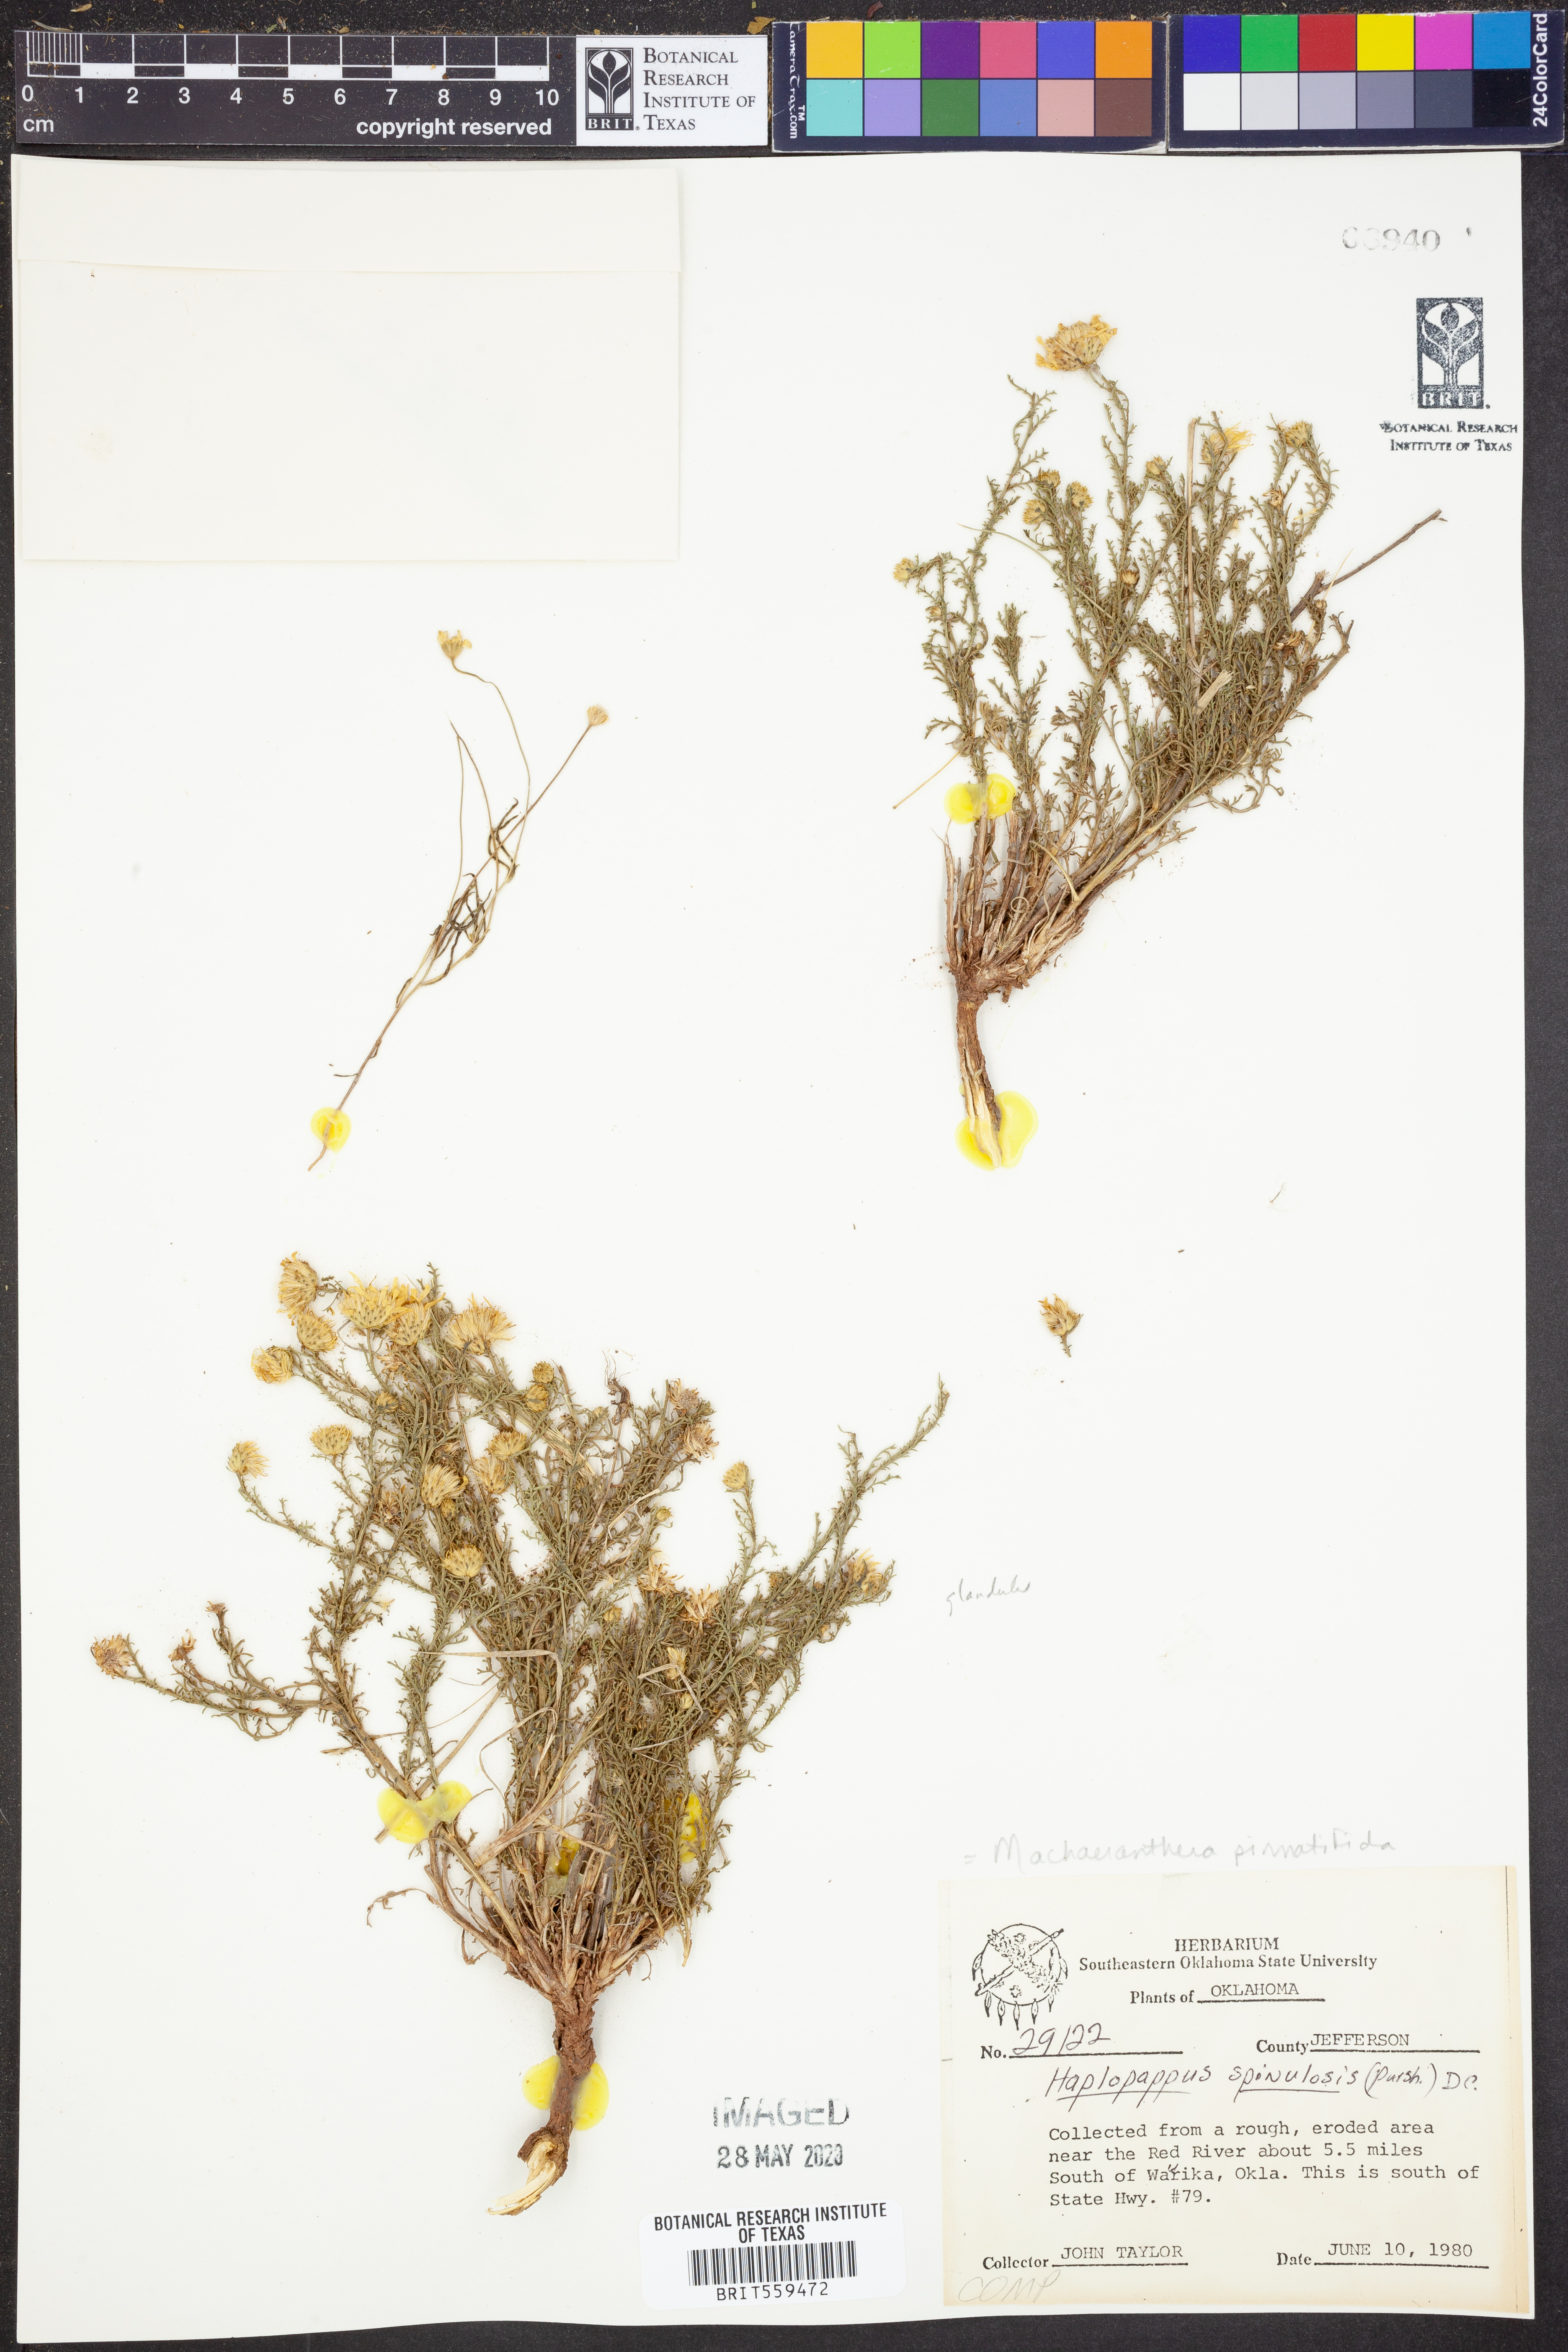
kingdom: Plantae
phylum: Tracheophyta
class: Magnoliopsida
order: Asterales
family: Asteraceae
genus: Xanthisma
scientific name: Xanthisma spinulosum
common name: Spiny goldenweed
